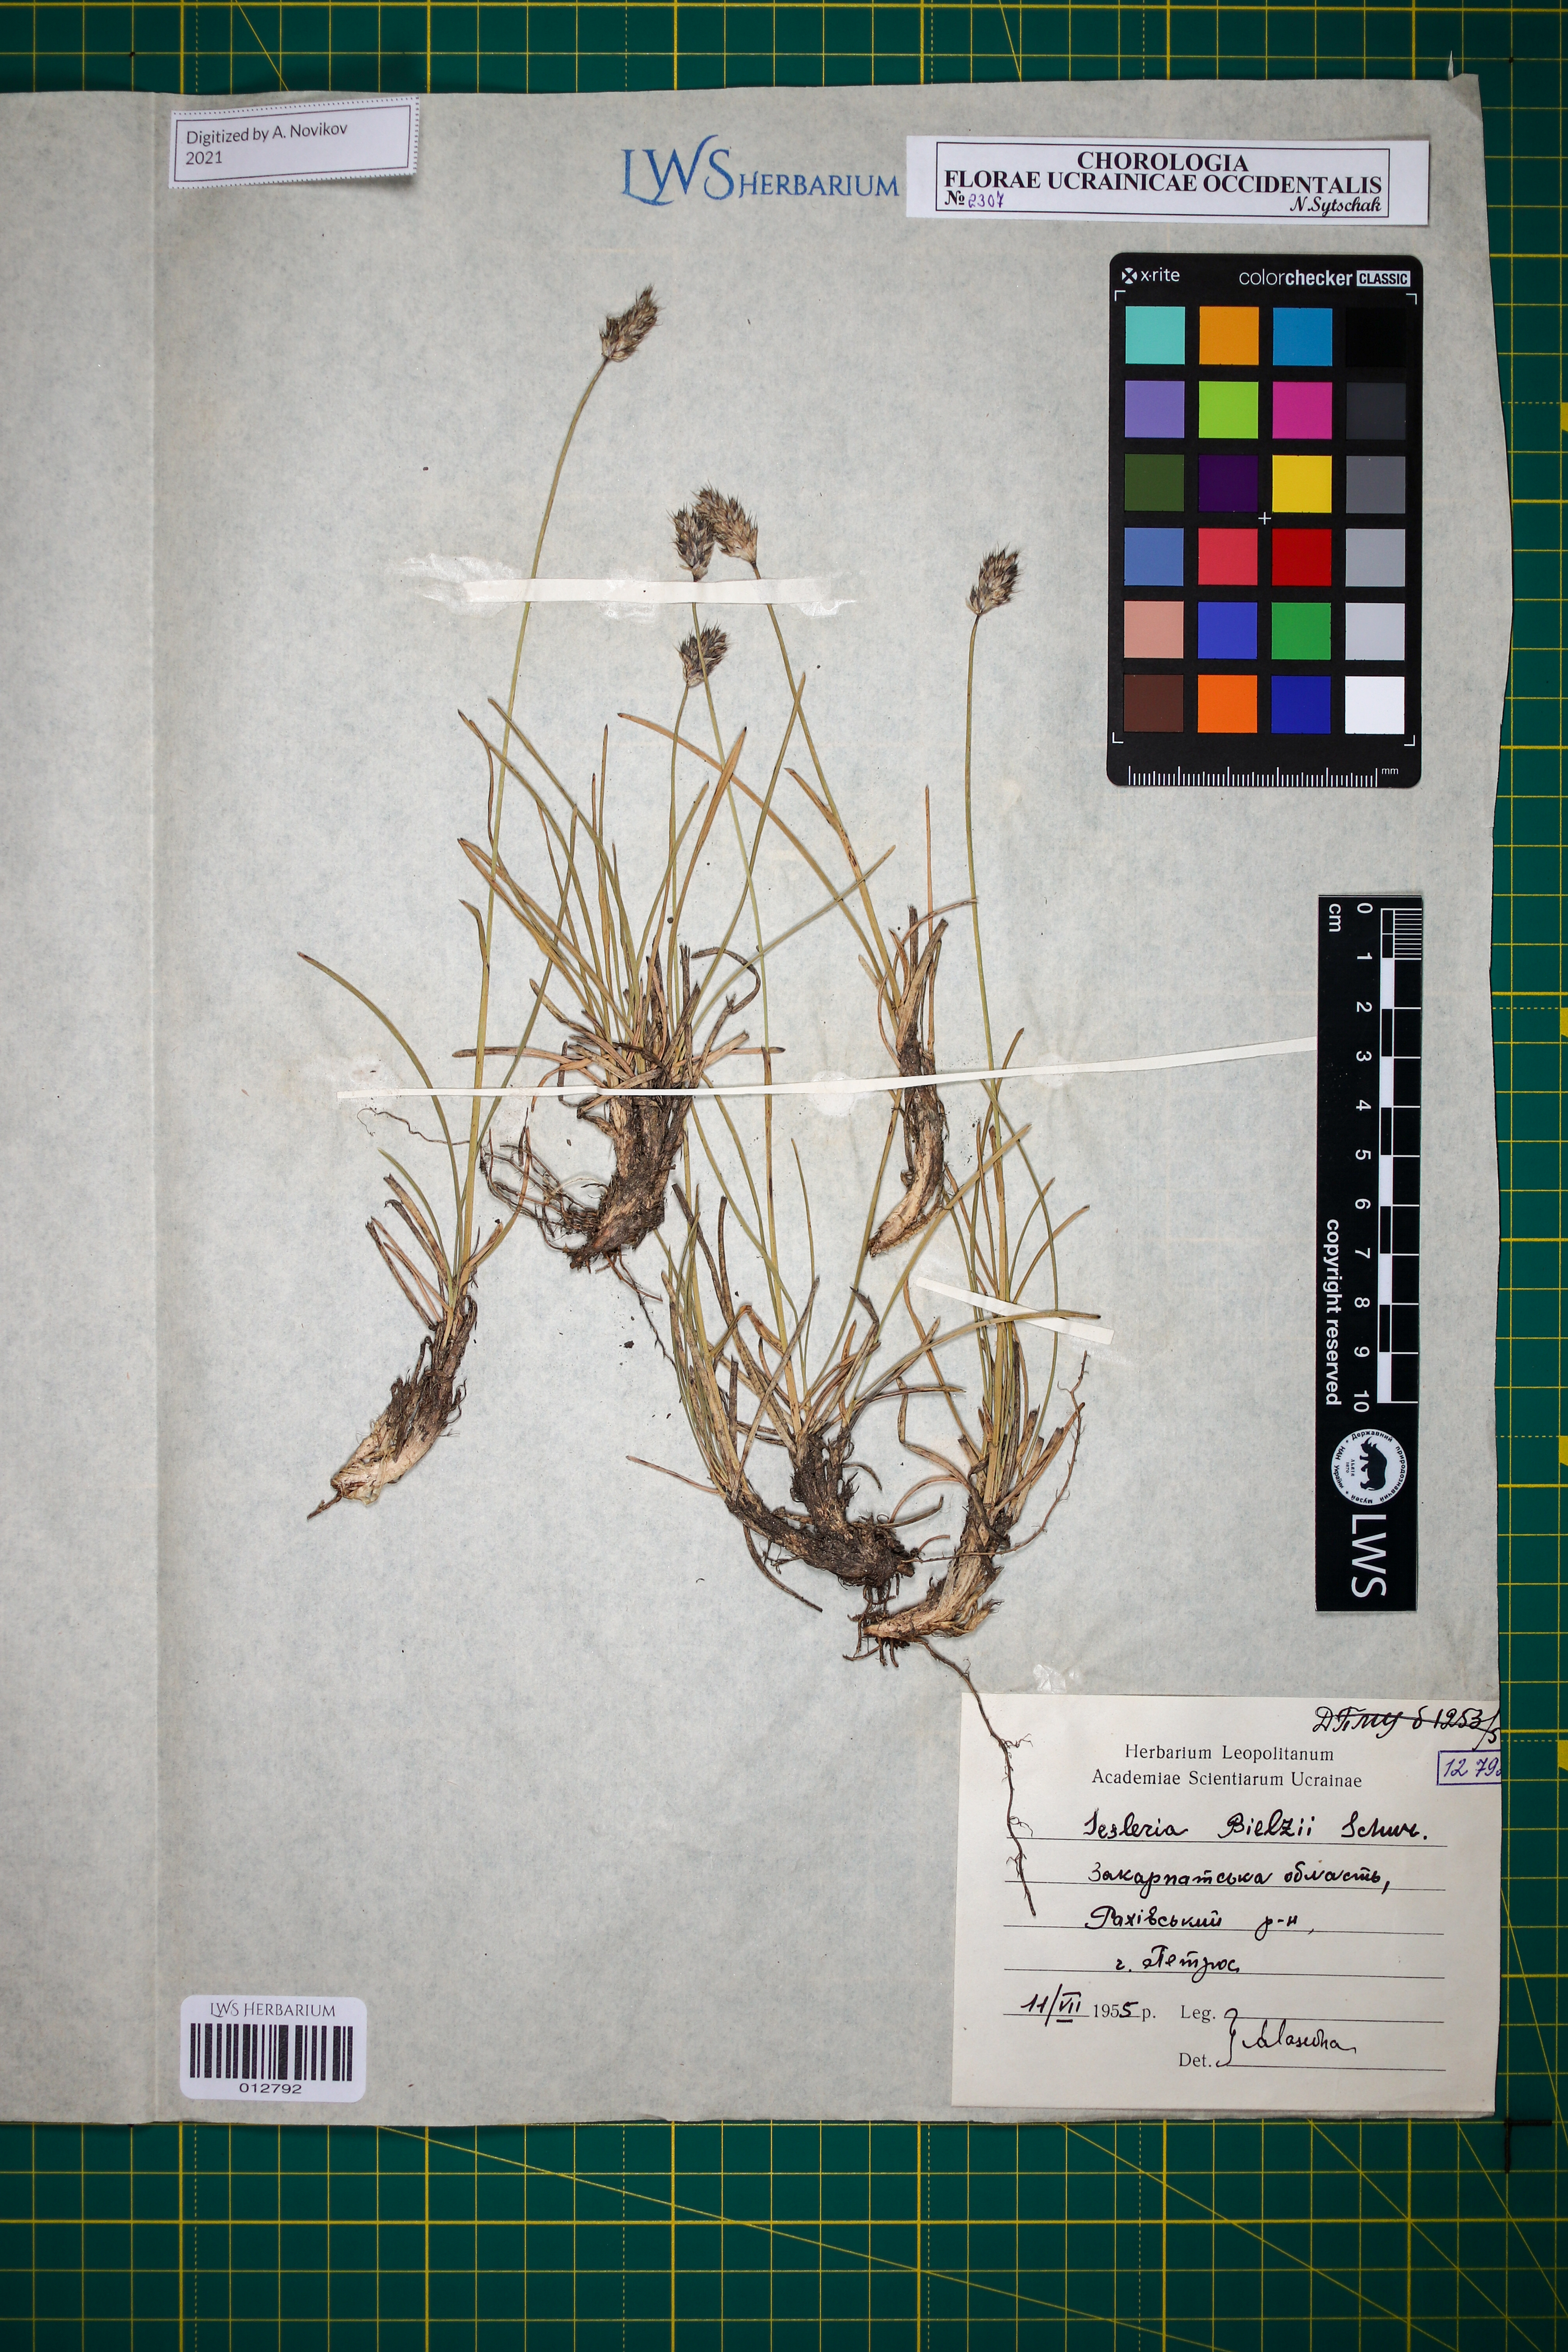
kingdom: Plantae
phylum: Tracheophyta
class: Liliopsida
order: Poales
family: Poaceae
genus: Sesleria
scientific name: Sesleria bielzii
